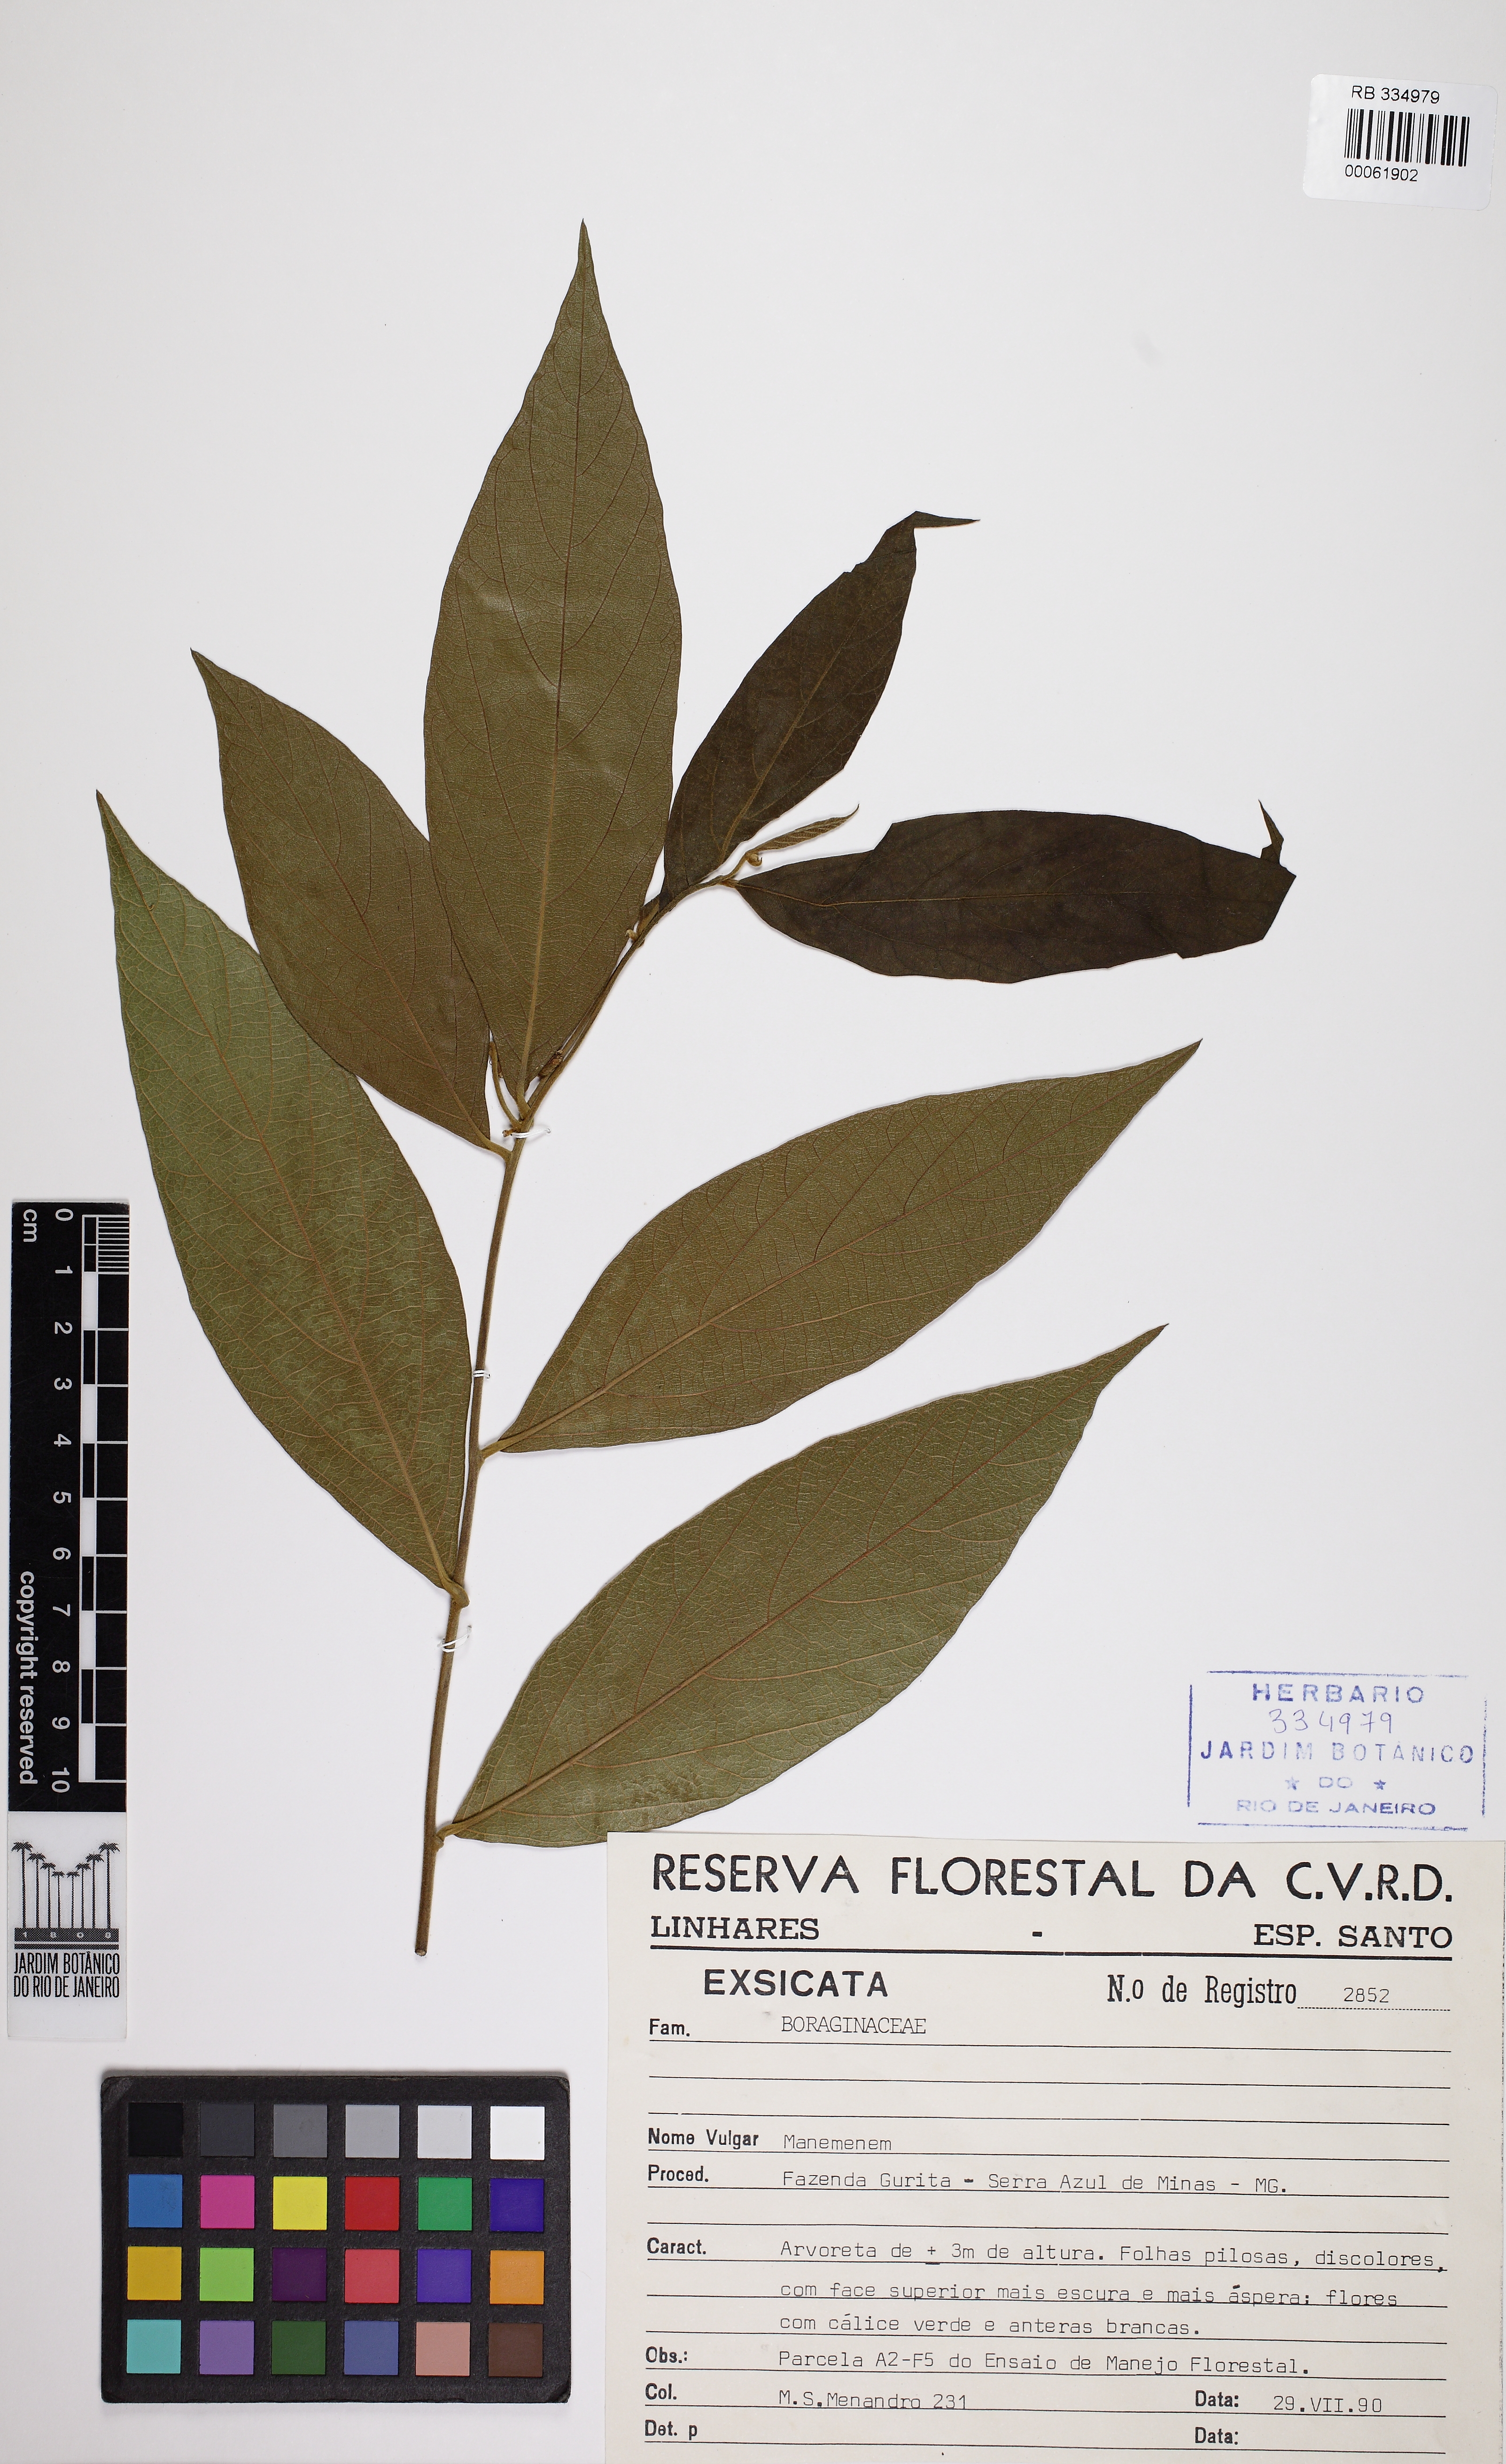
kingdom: Plantae
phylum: Tracheophyta
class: Magnoliopsida
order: Boraginales
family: Boraginaceae
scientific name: Boraginaceae
